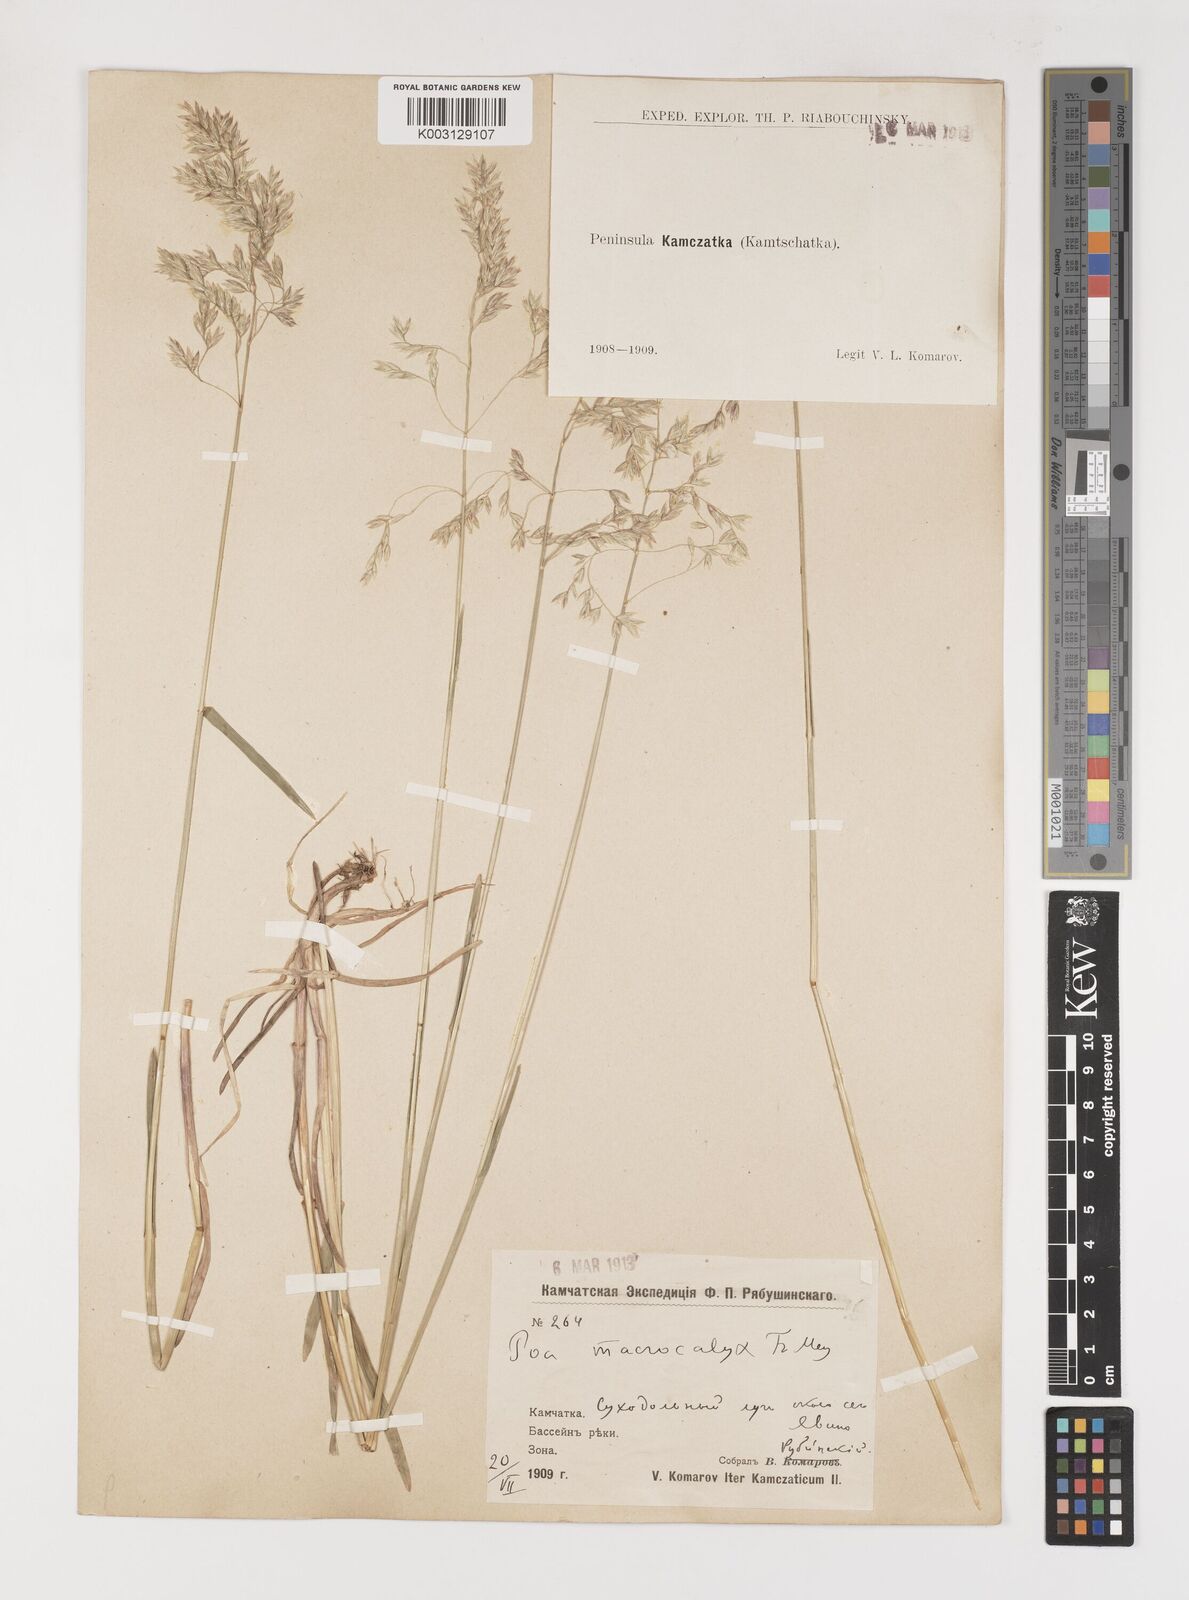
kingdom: Plantae
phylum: Tracheophyta
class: Liliopsida
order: Poales
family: Poaceae
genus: Poa
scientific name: Poa macrocalyx
